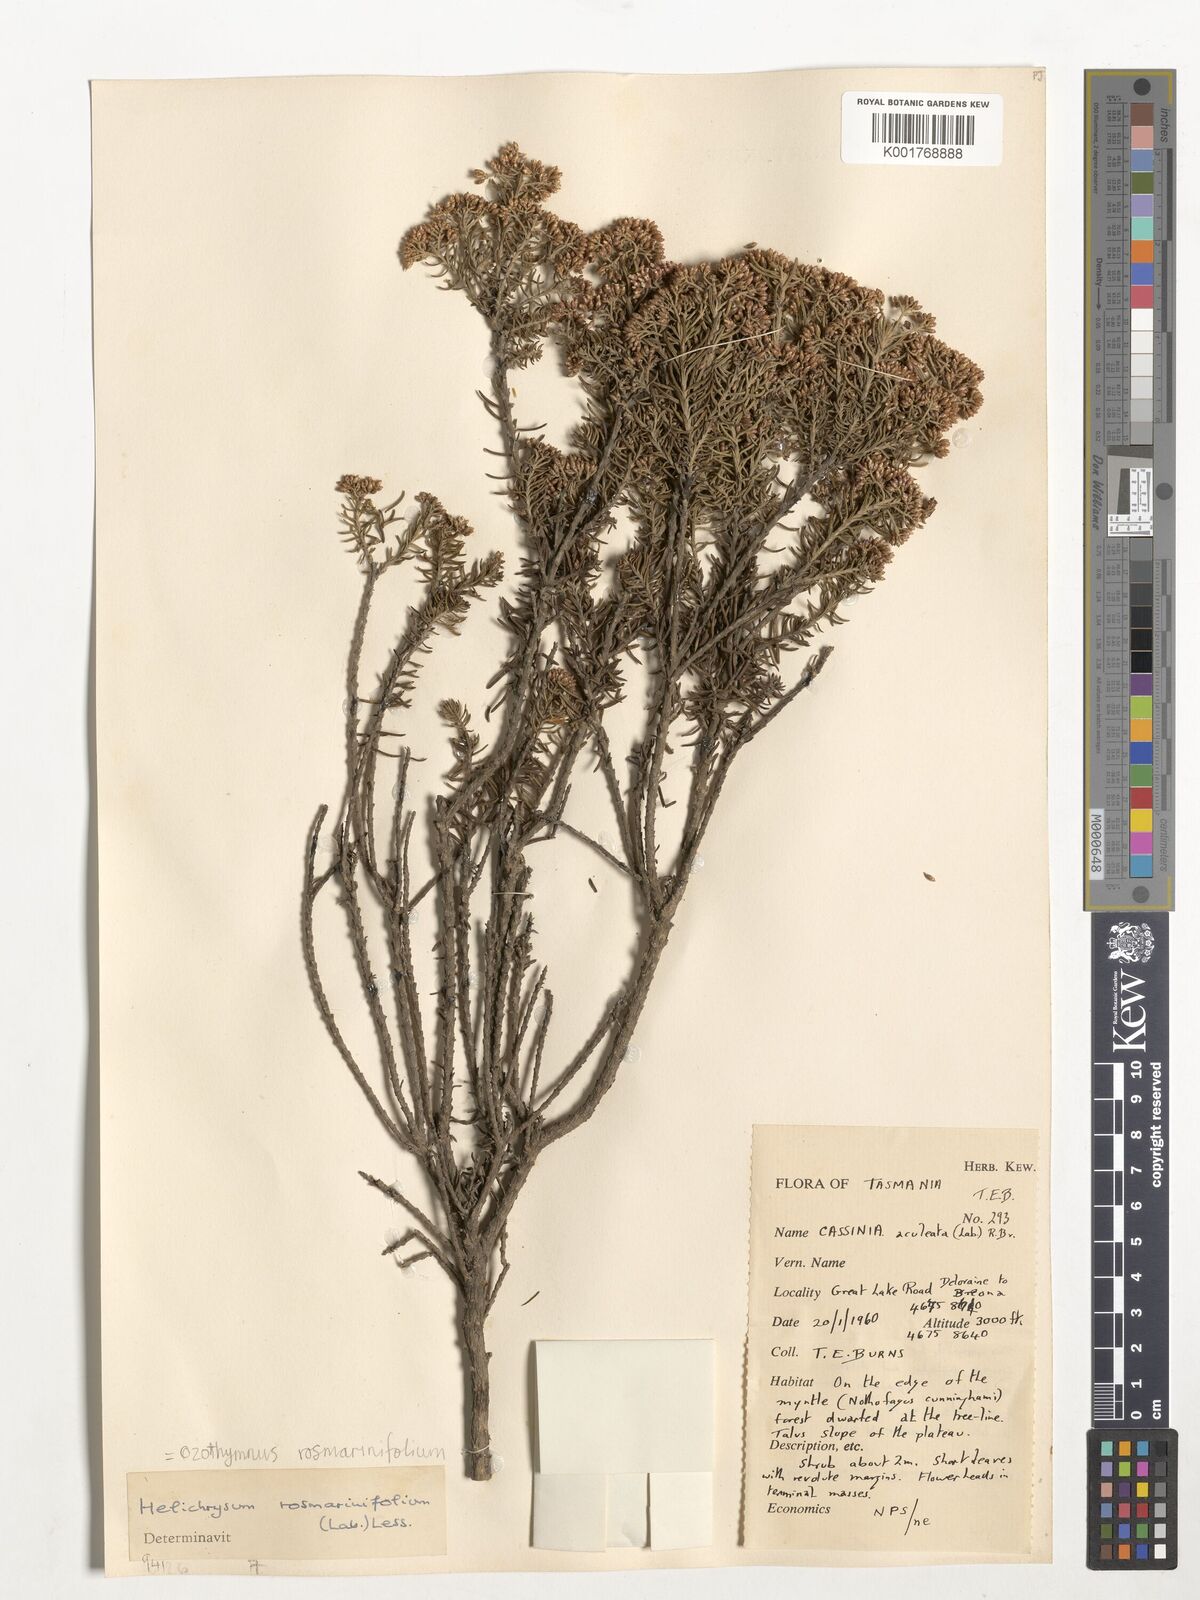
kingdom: Plantae
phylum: Tracheophyta
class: Magnoliopsida
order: Asterales
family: Asteraceae
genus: Ozothamnus
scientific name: Ozothamnus rosmarinifolius
